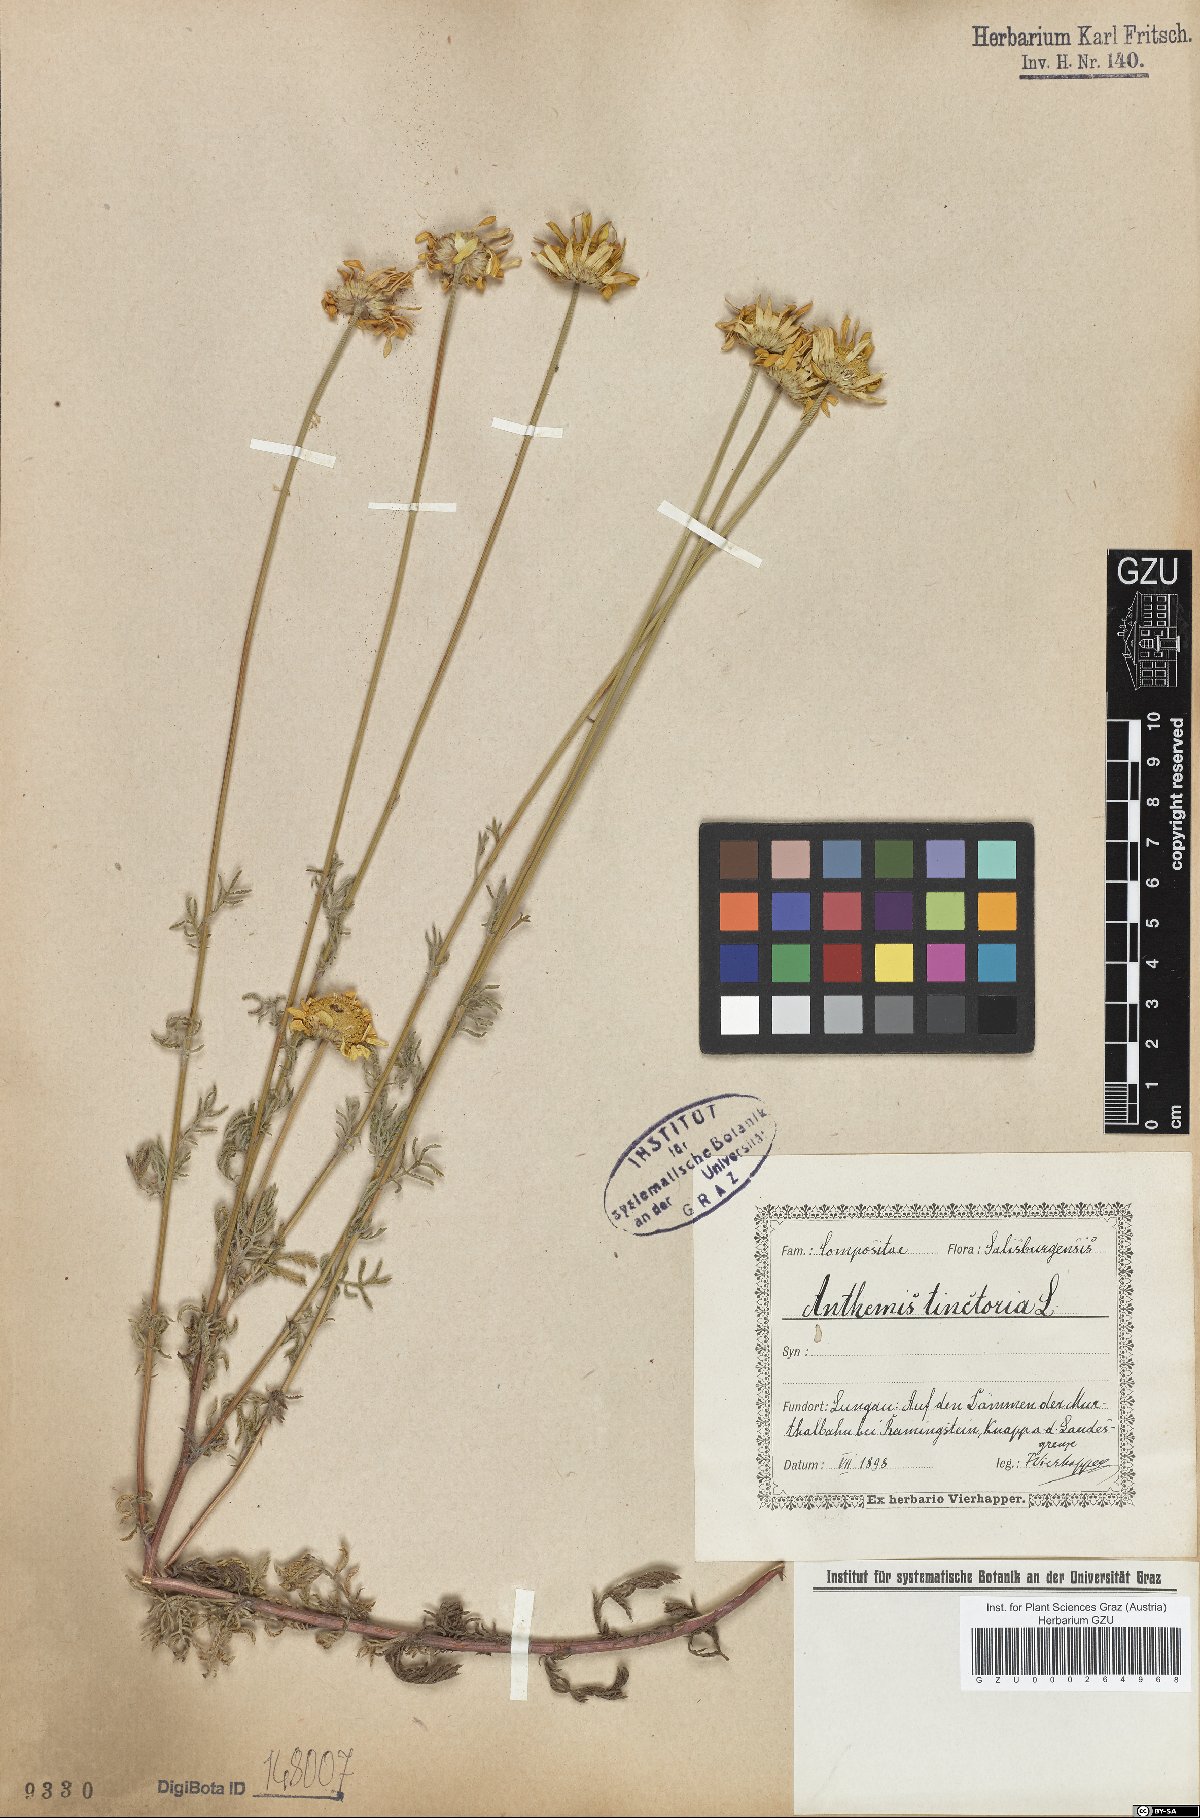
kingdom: Plantae
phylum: Tracheophyta
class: Magnoliopsida
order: Asterales
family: Asteraceae
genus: Cota
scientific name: Cota tinctoria
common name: Golden chamomile
